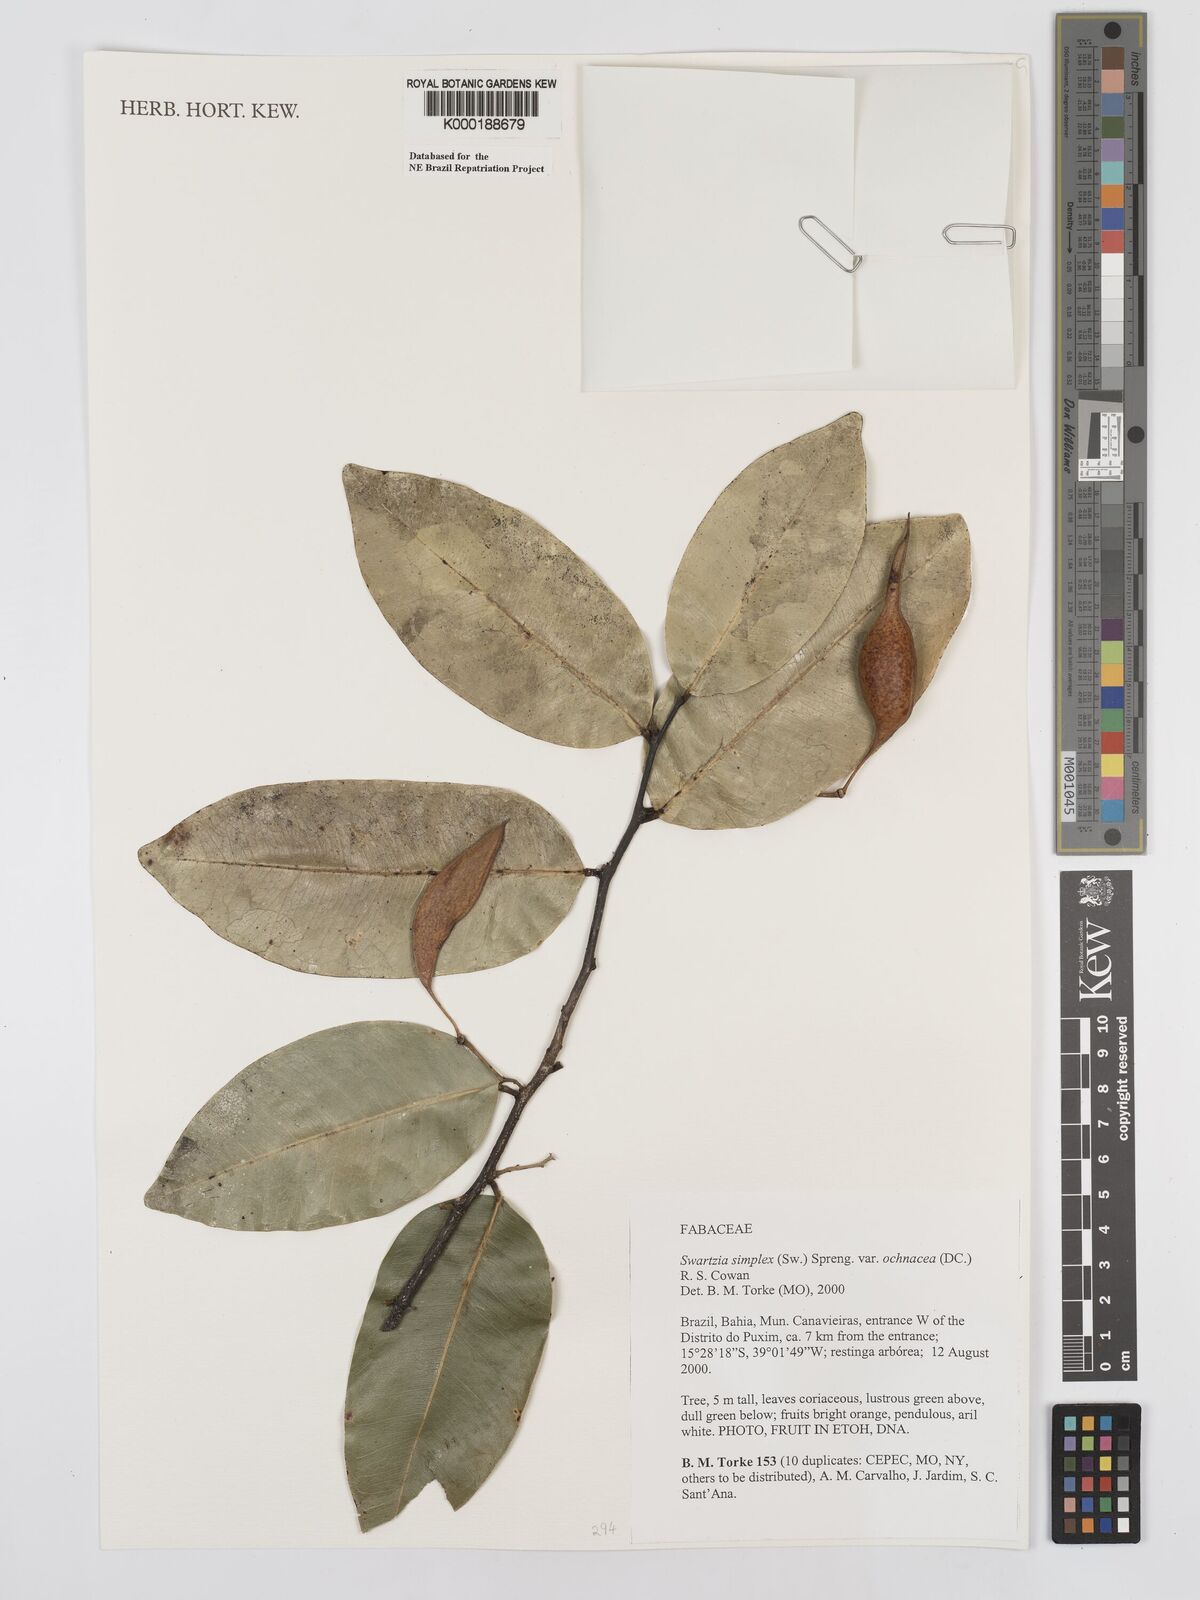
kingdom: Plantae
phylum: Tracheophyta
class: Magnoliopsida
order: Fabales
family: Fabaceae
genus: Swartzia
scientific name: Swartzia simplex
